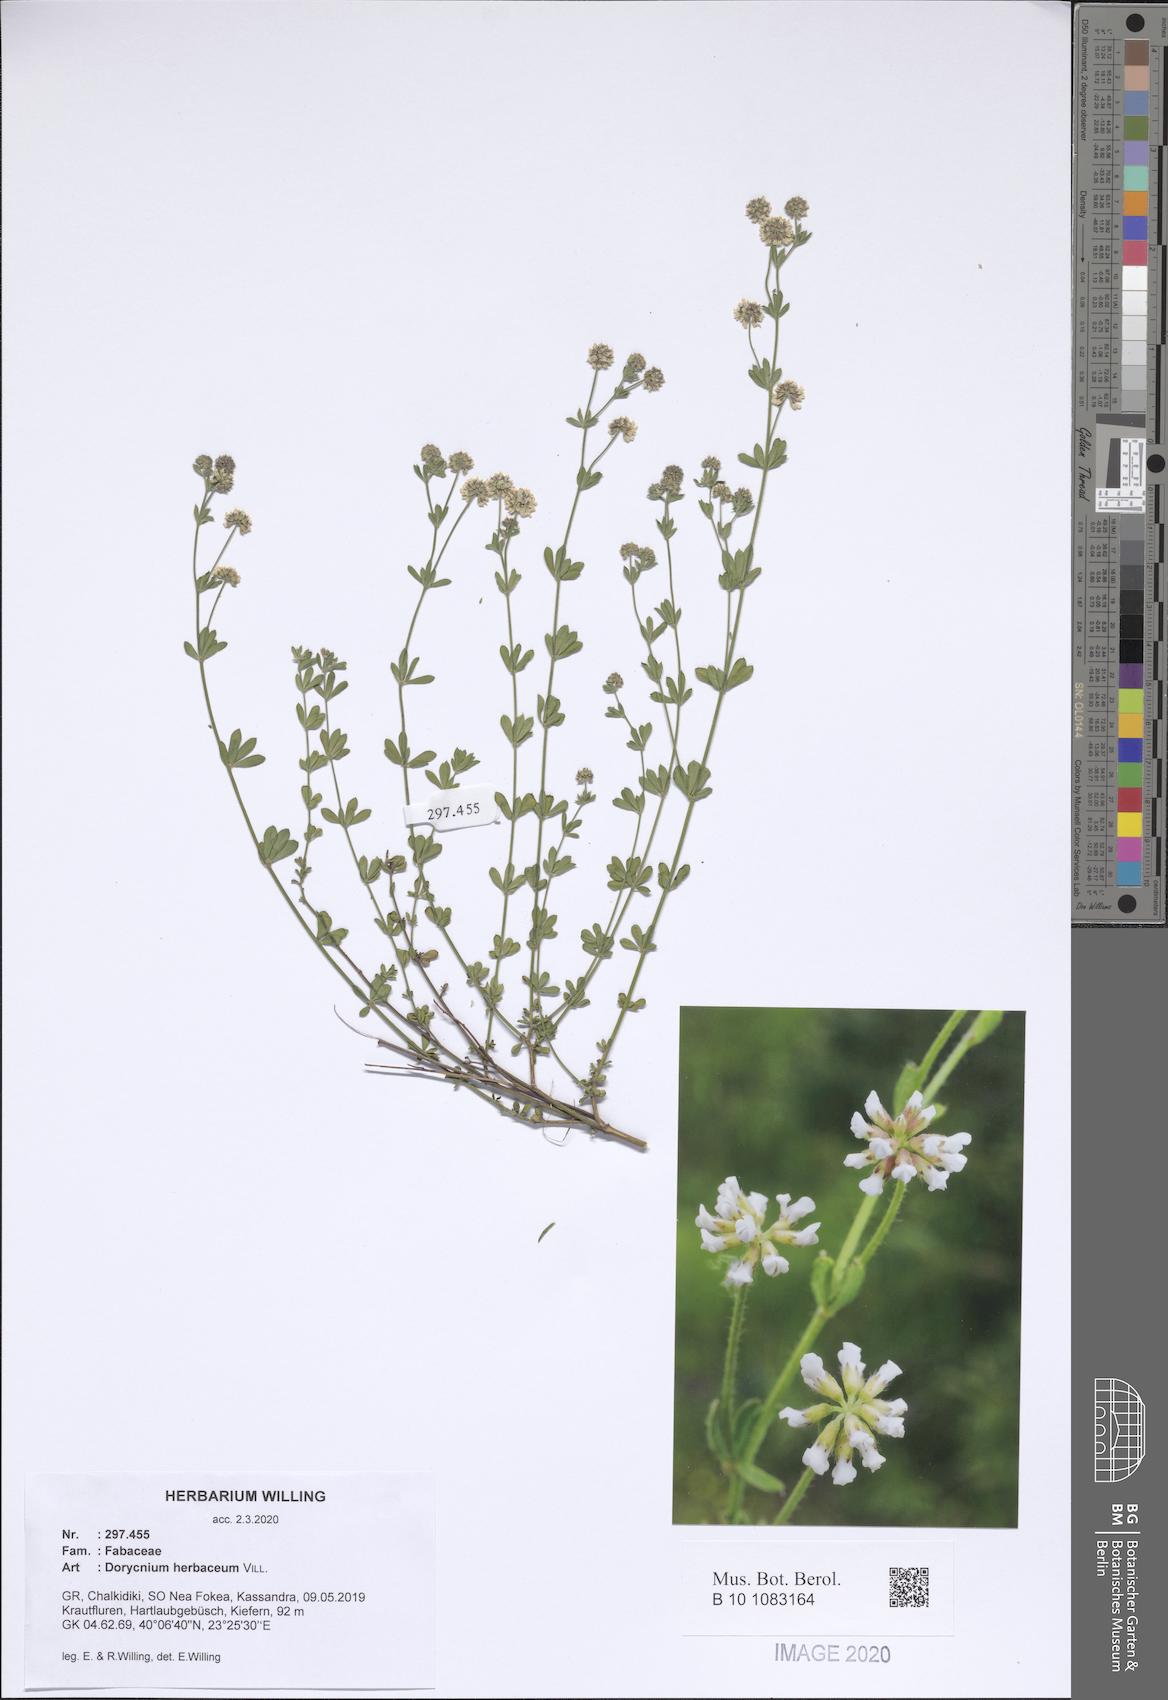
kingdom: Plantae
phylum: Tracheophyta
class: Magnoliopsida
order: Fabales
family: Fabaceae
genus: Lotus
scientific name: Lotus herbaceus
